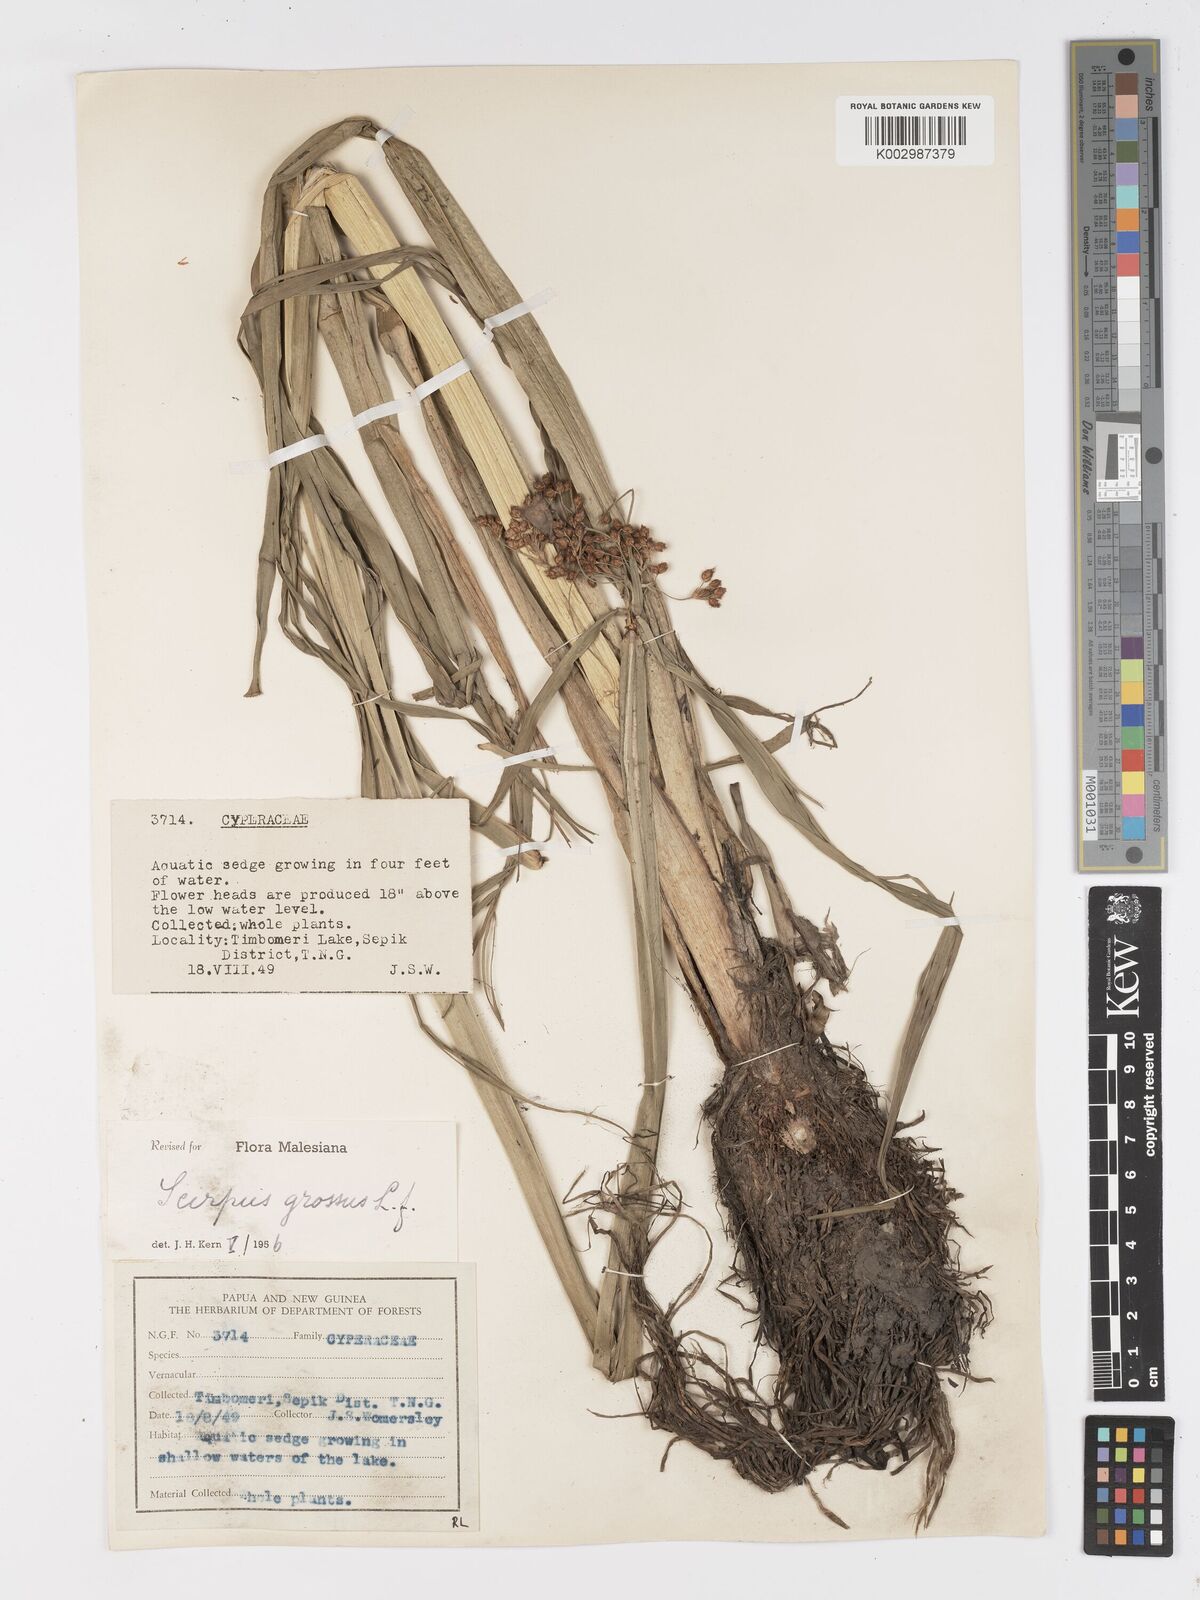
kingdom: Plantae
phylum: Tracheophyta
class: Liliopsida
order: Poales
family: Cyperaceae
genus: Actinoscirpus
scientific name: Actinoscirpus grossus
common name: Giant bur rush
